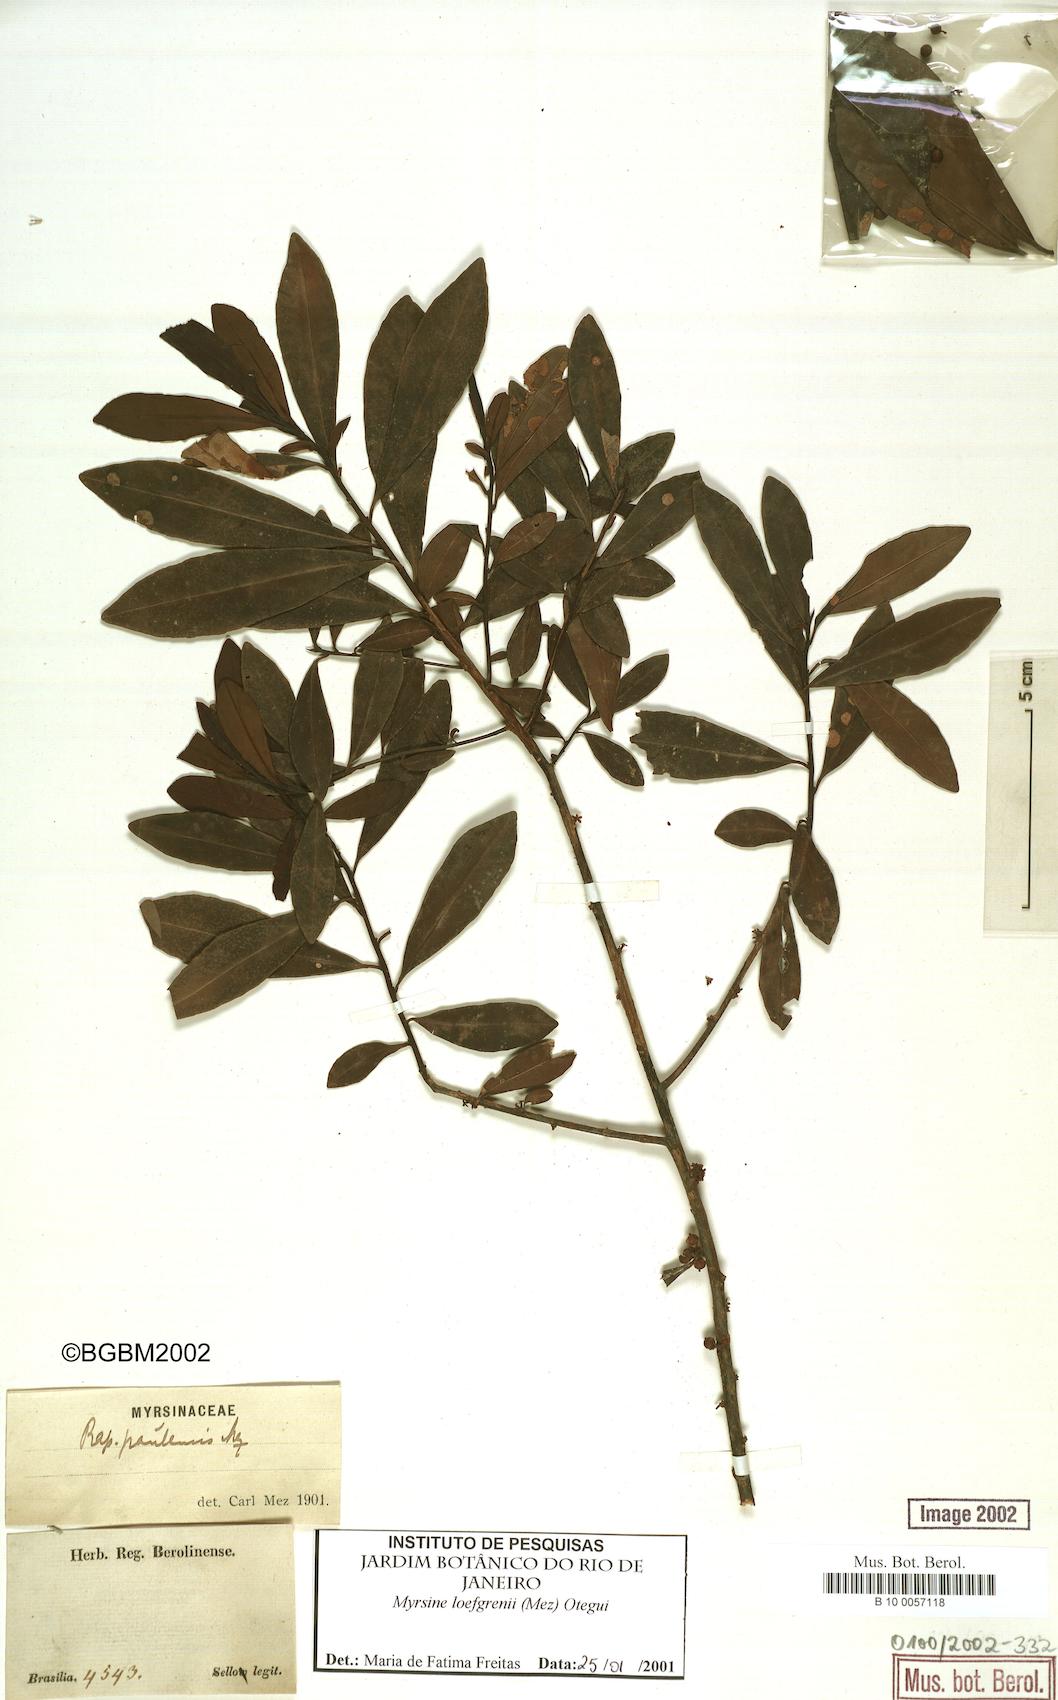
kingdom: Plantae
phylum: Tracheophyta
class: Magnoliopsida
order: Ericales
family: Primulaceae
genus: Myrsine
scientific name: Myrsine loefgrenii
